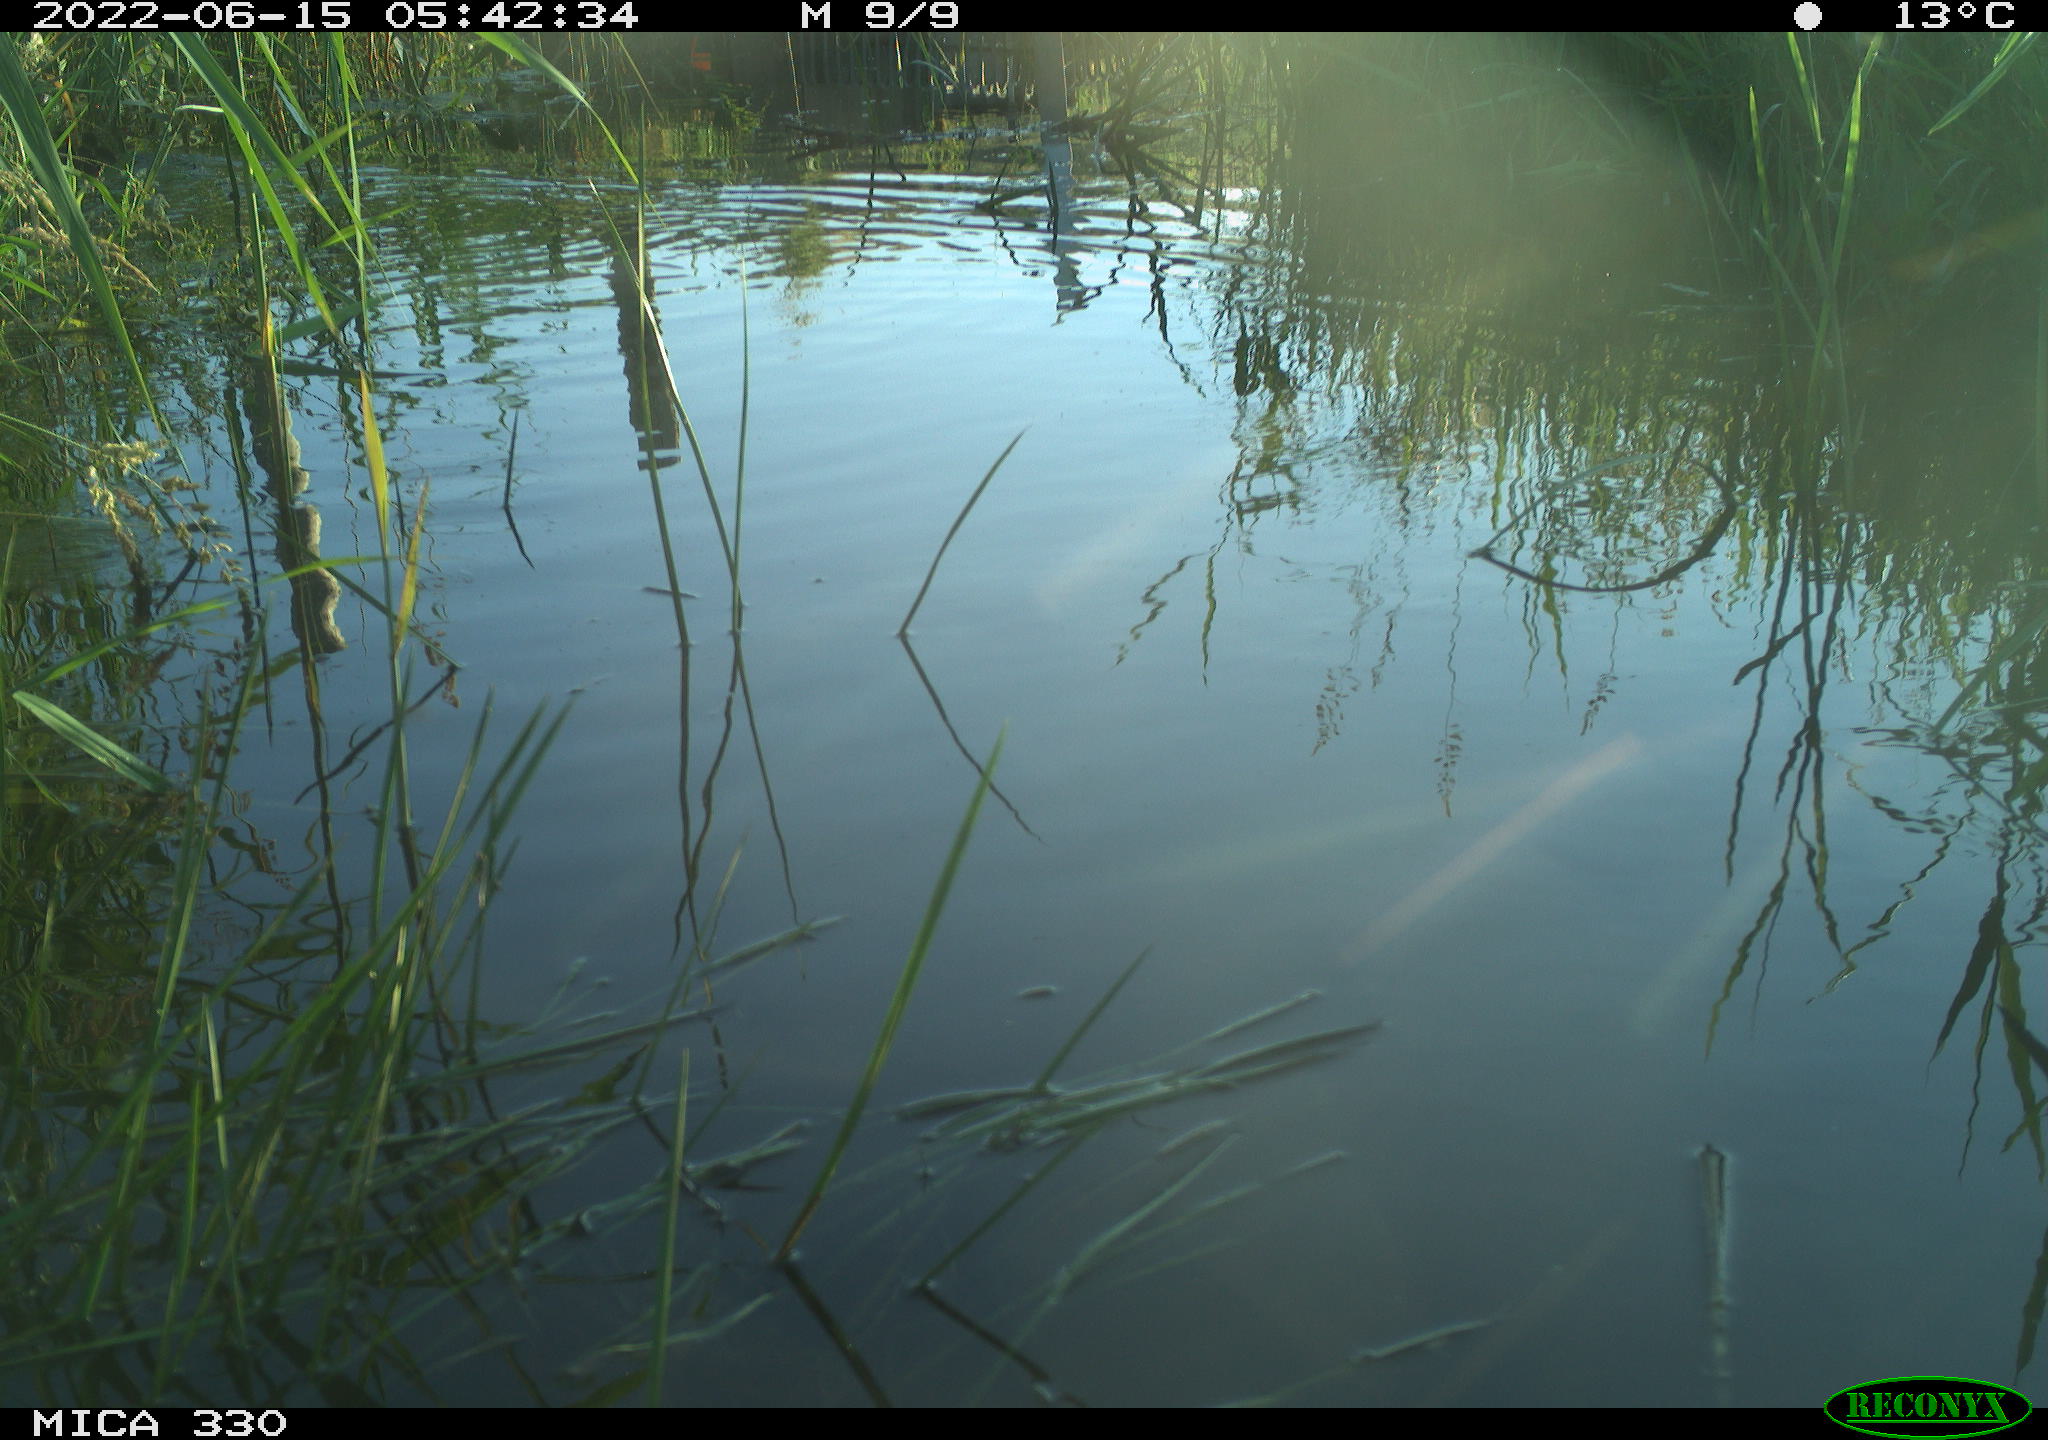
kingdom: Animalia
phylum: Chordata
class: Aves
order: Anseriformes
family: Anatidae
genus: Anas
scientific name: Anas platyrhynchos
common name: Mallard
